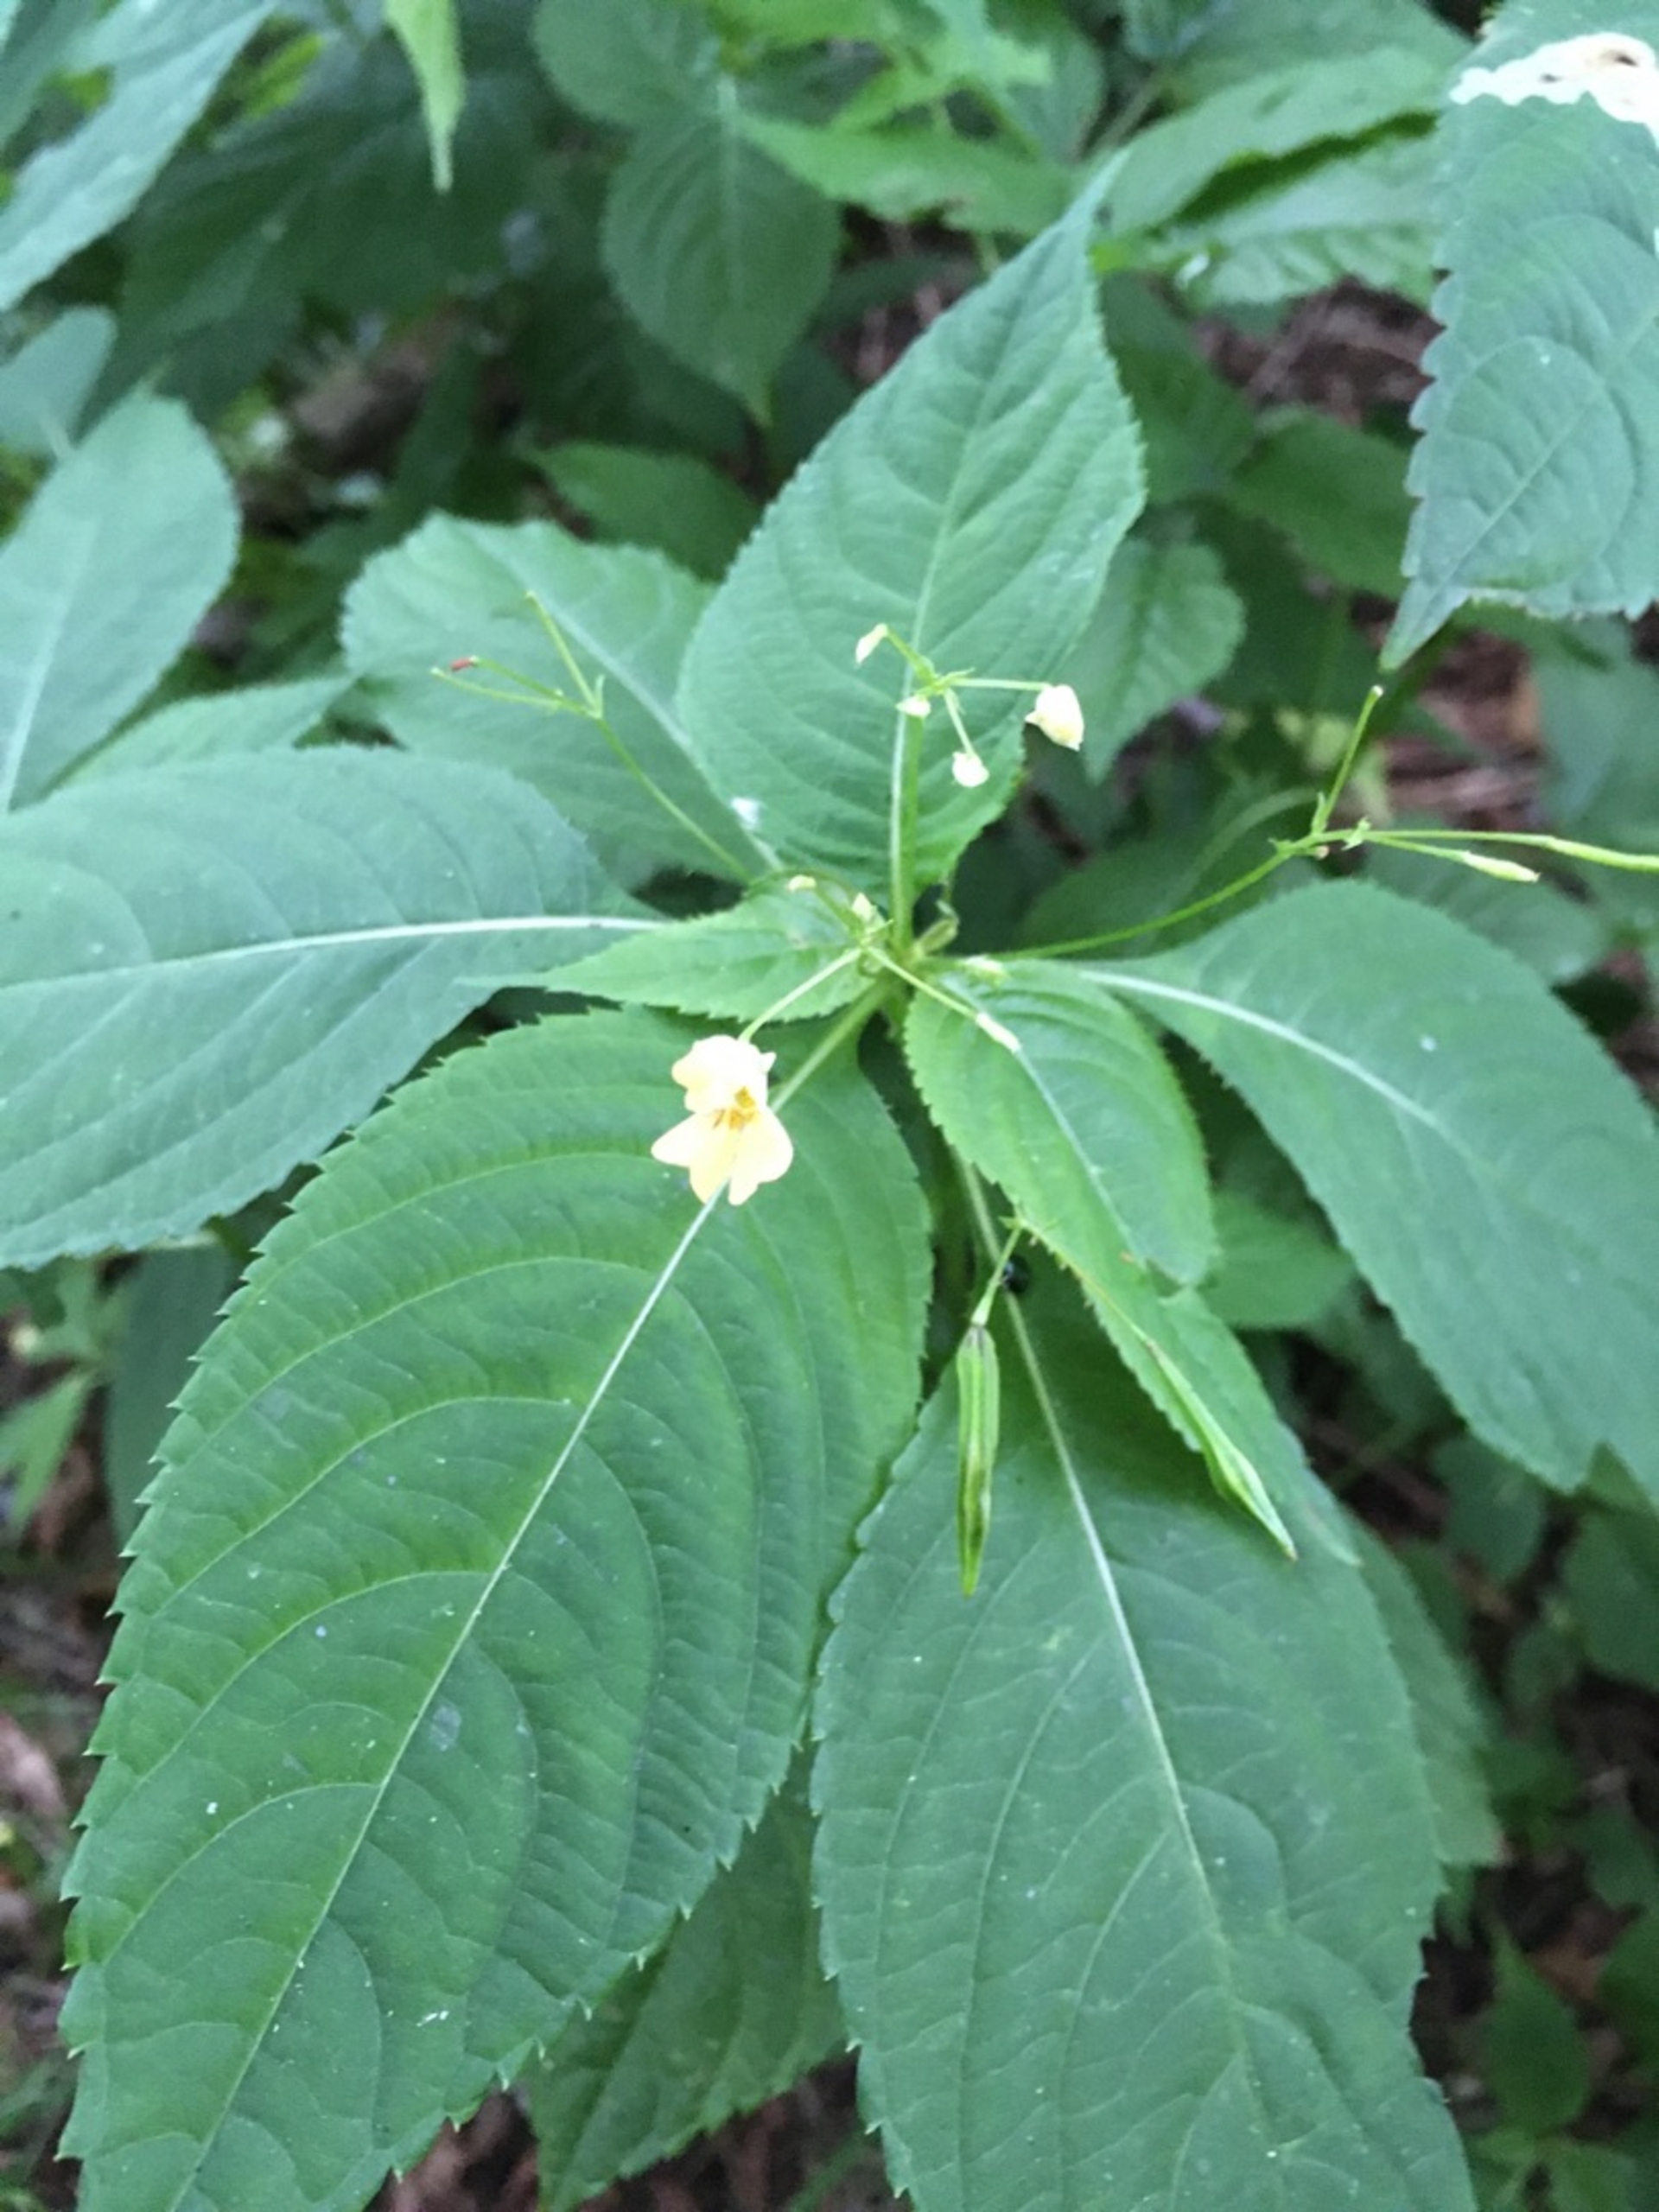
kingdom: Plantae
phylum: Tracheophyta
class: Magnoliopsida
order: Ericales
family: Balsaminaceae
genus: Impatiens
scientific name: Impatiens parviflora
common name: Småblomstret balsamin
